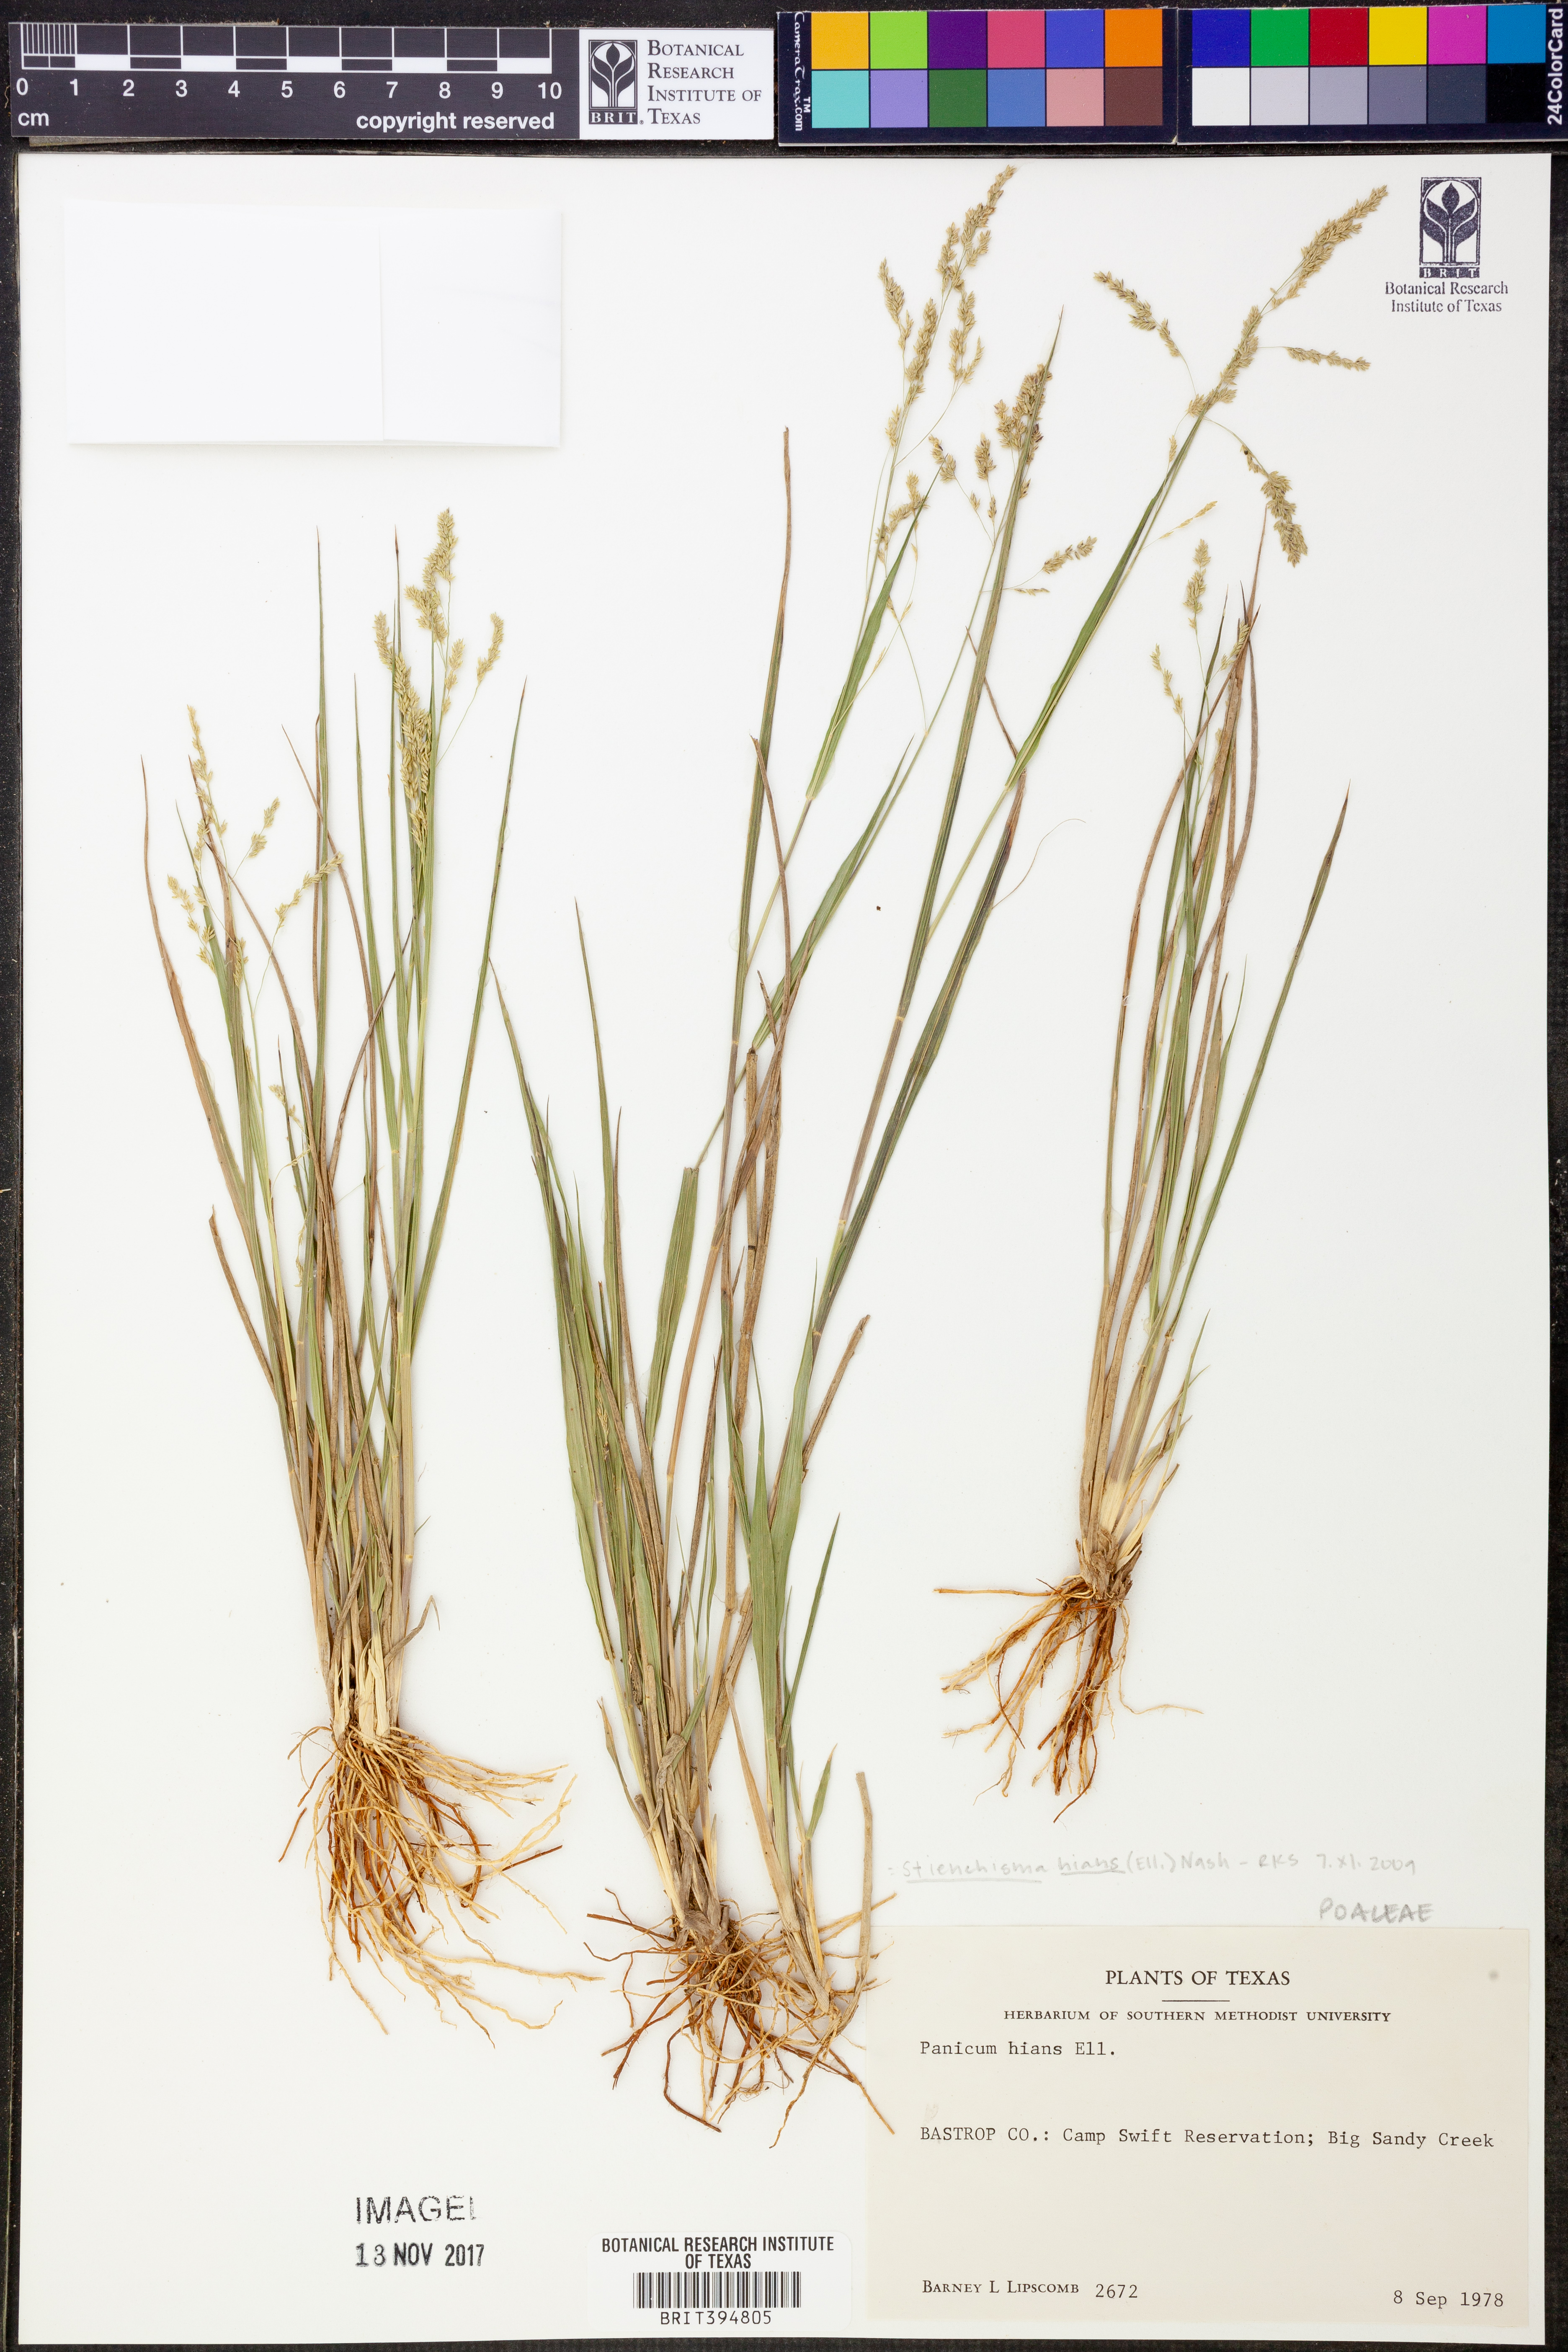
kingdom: Plantae
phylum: Tracheophyta
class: Liliopsida
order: Poales
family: Poaceae
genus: Steinchisma
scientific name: Steinchisma hians
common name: Gaping panic grass
